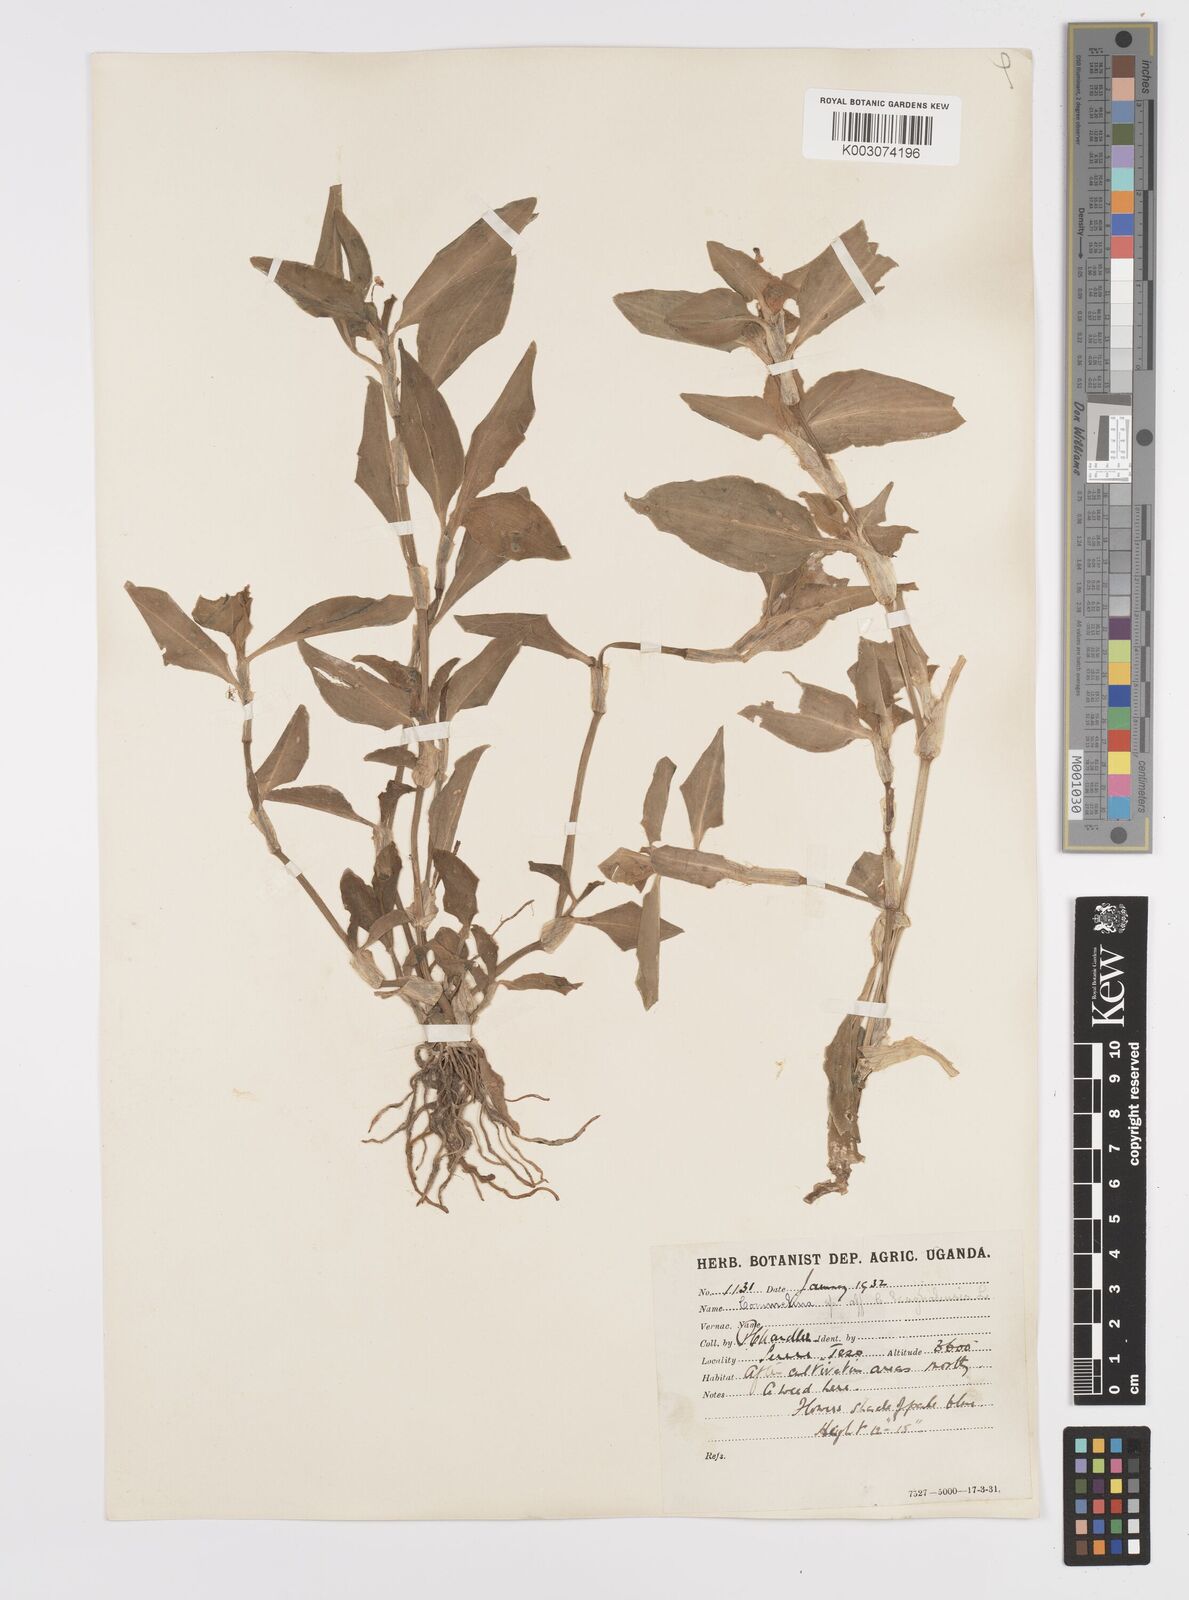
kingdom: Plantae
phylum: Tracheophyta
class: Liliopsida
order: Commelinales
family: Commelinaceae
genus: Commelina
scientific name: Commelina benghalensis
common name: Jio
